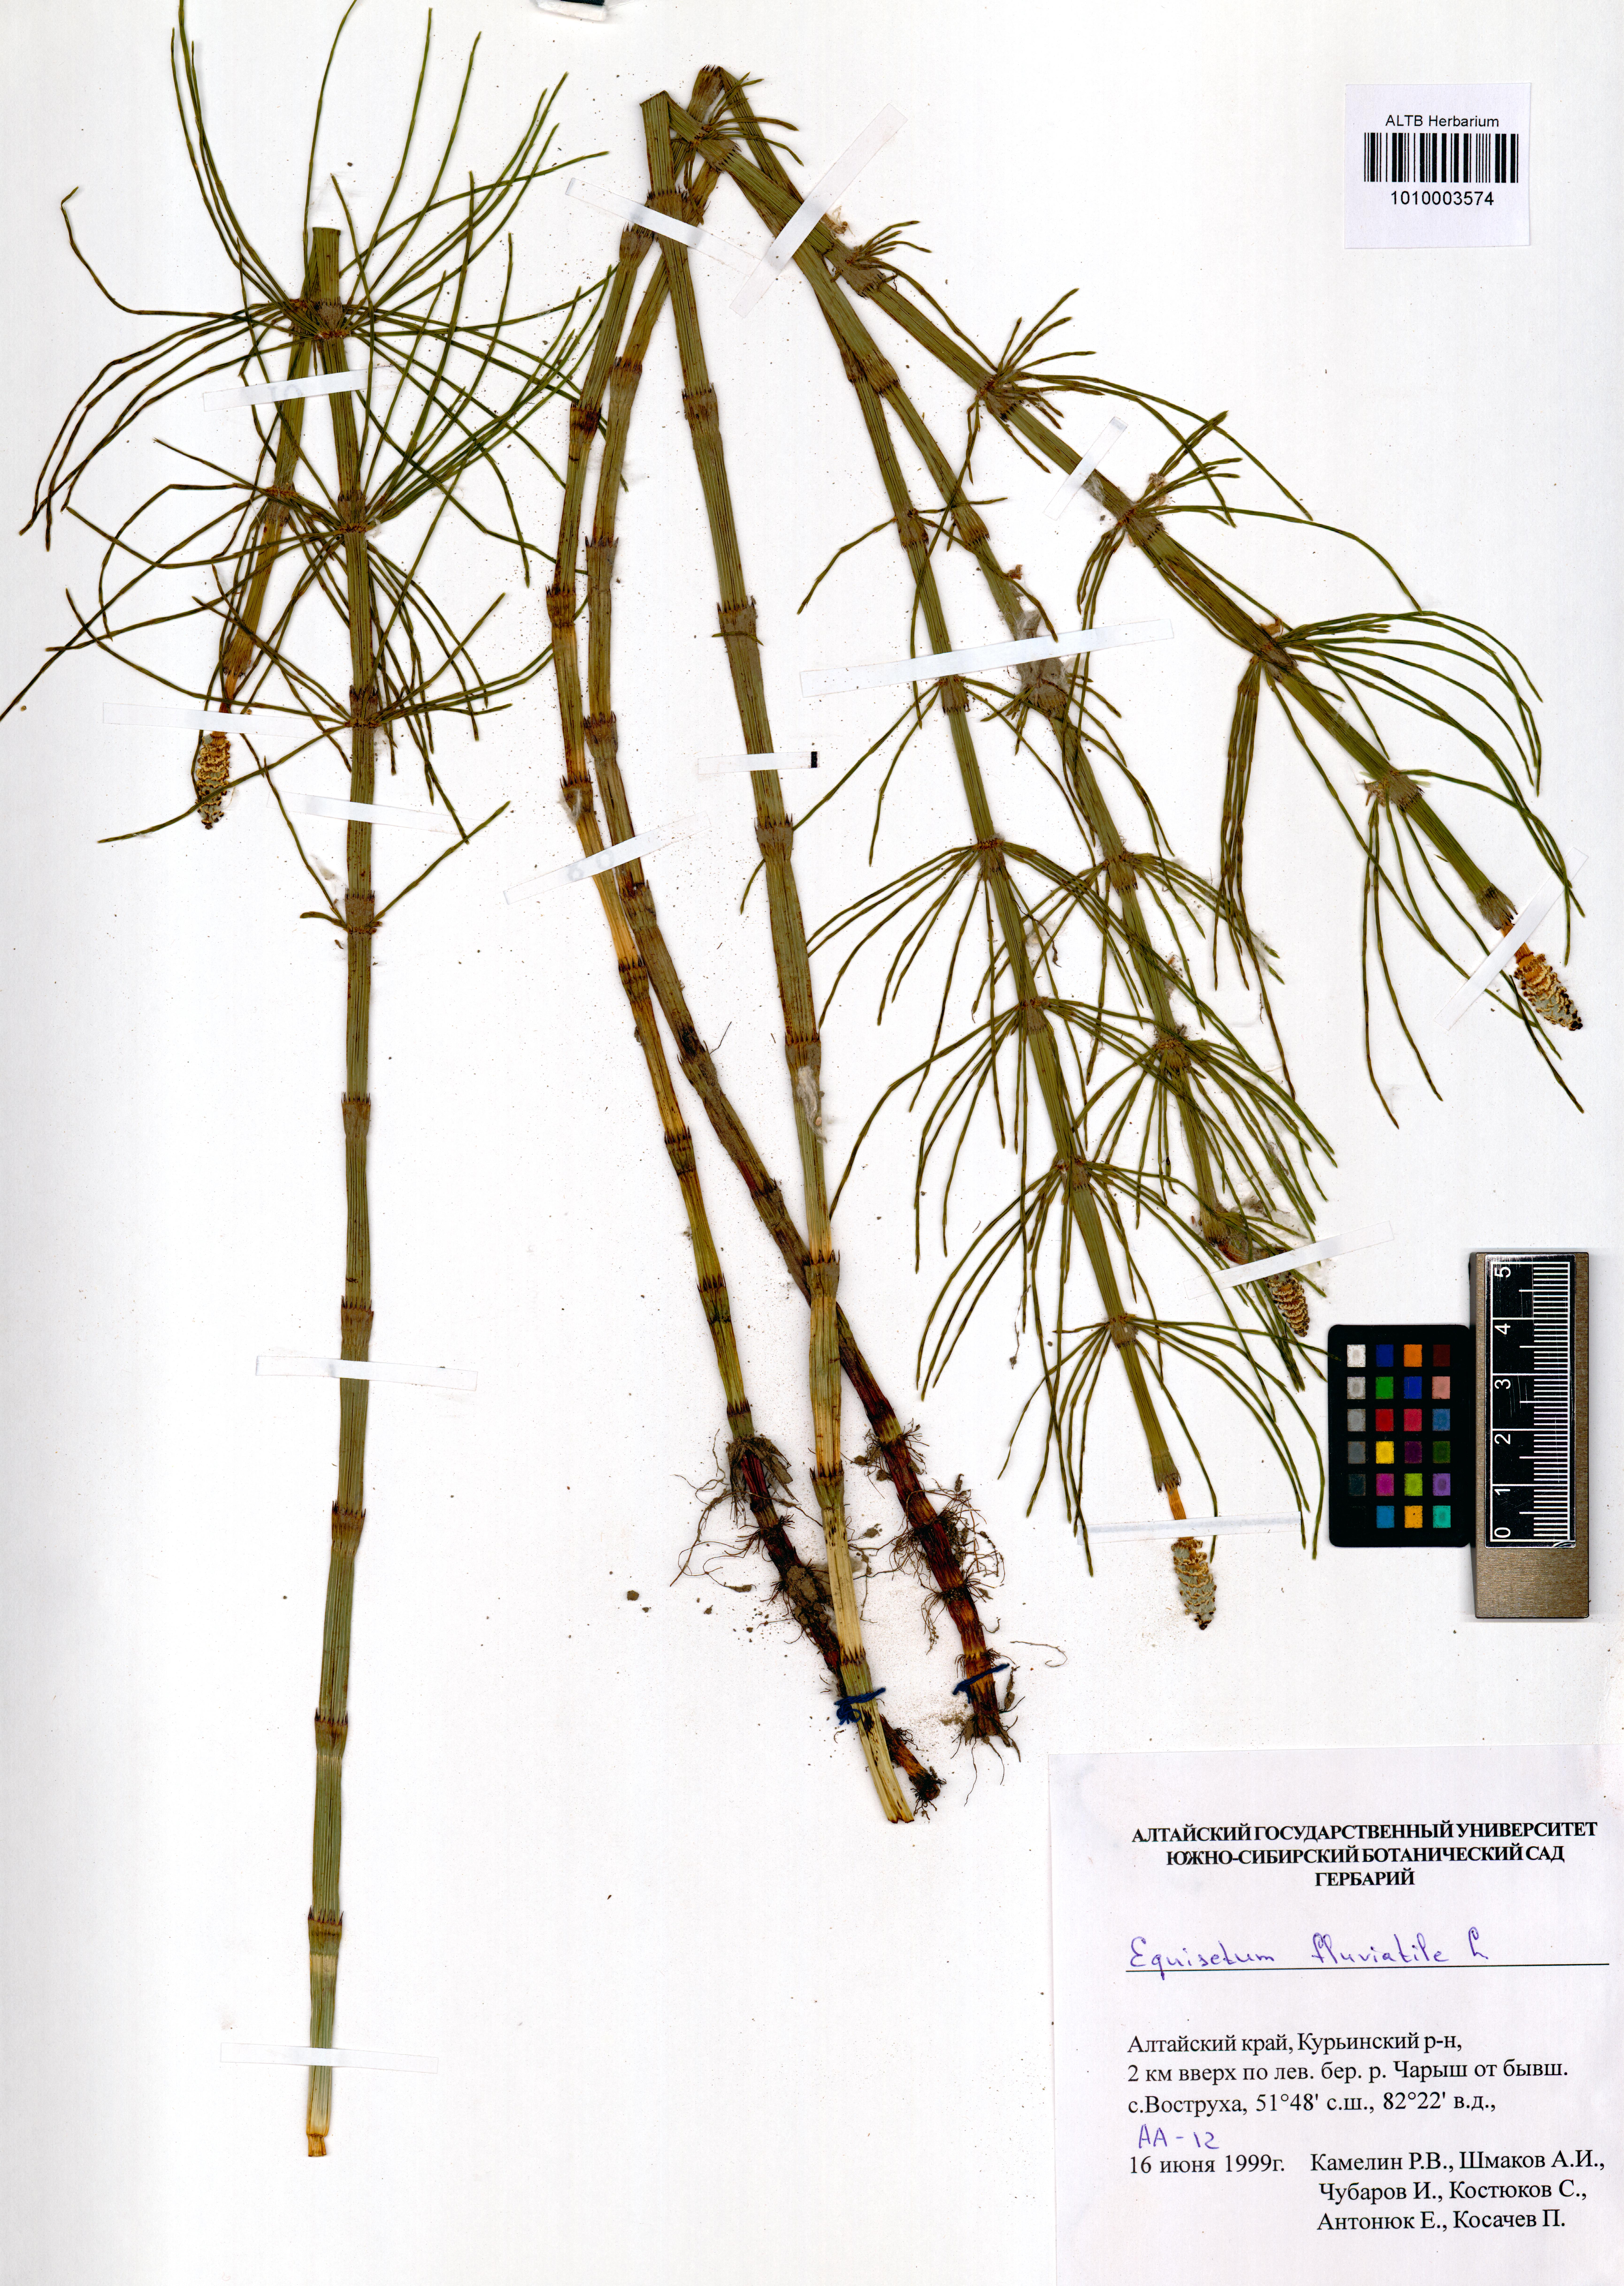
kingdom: Plantae
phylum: Tracheophyta
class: Polypodiopsida
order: Equisetales
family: Equisetaceae
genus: Equisetum
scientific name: Equisetum fluviatile
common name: Water horsetail
